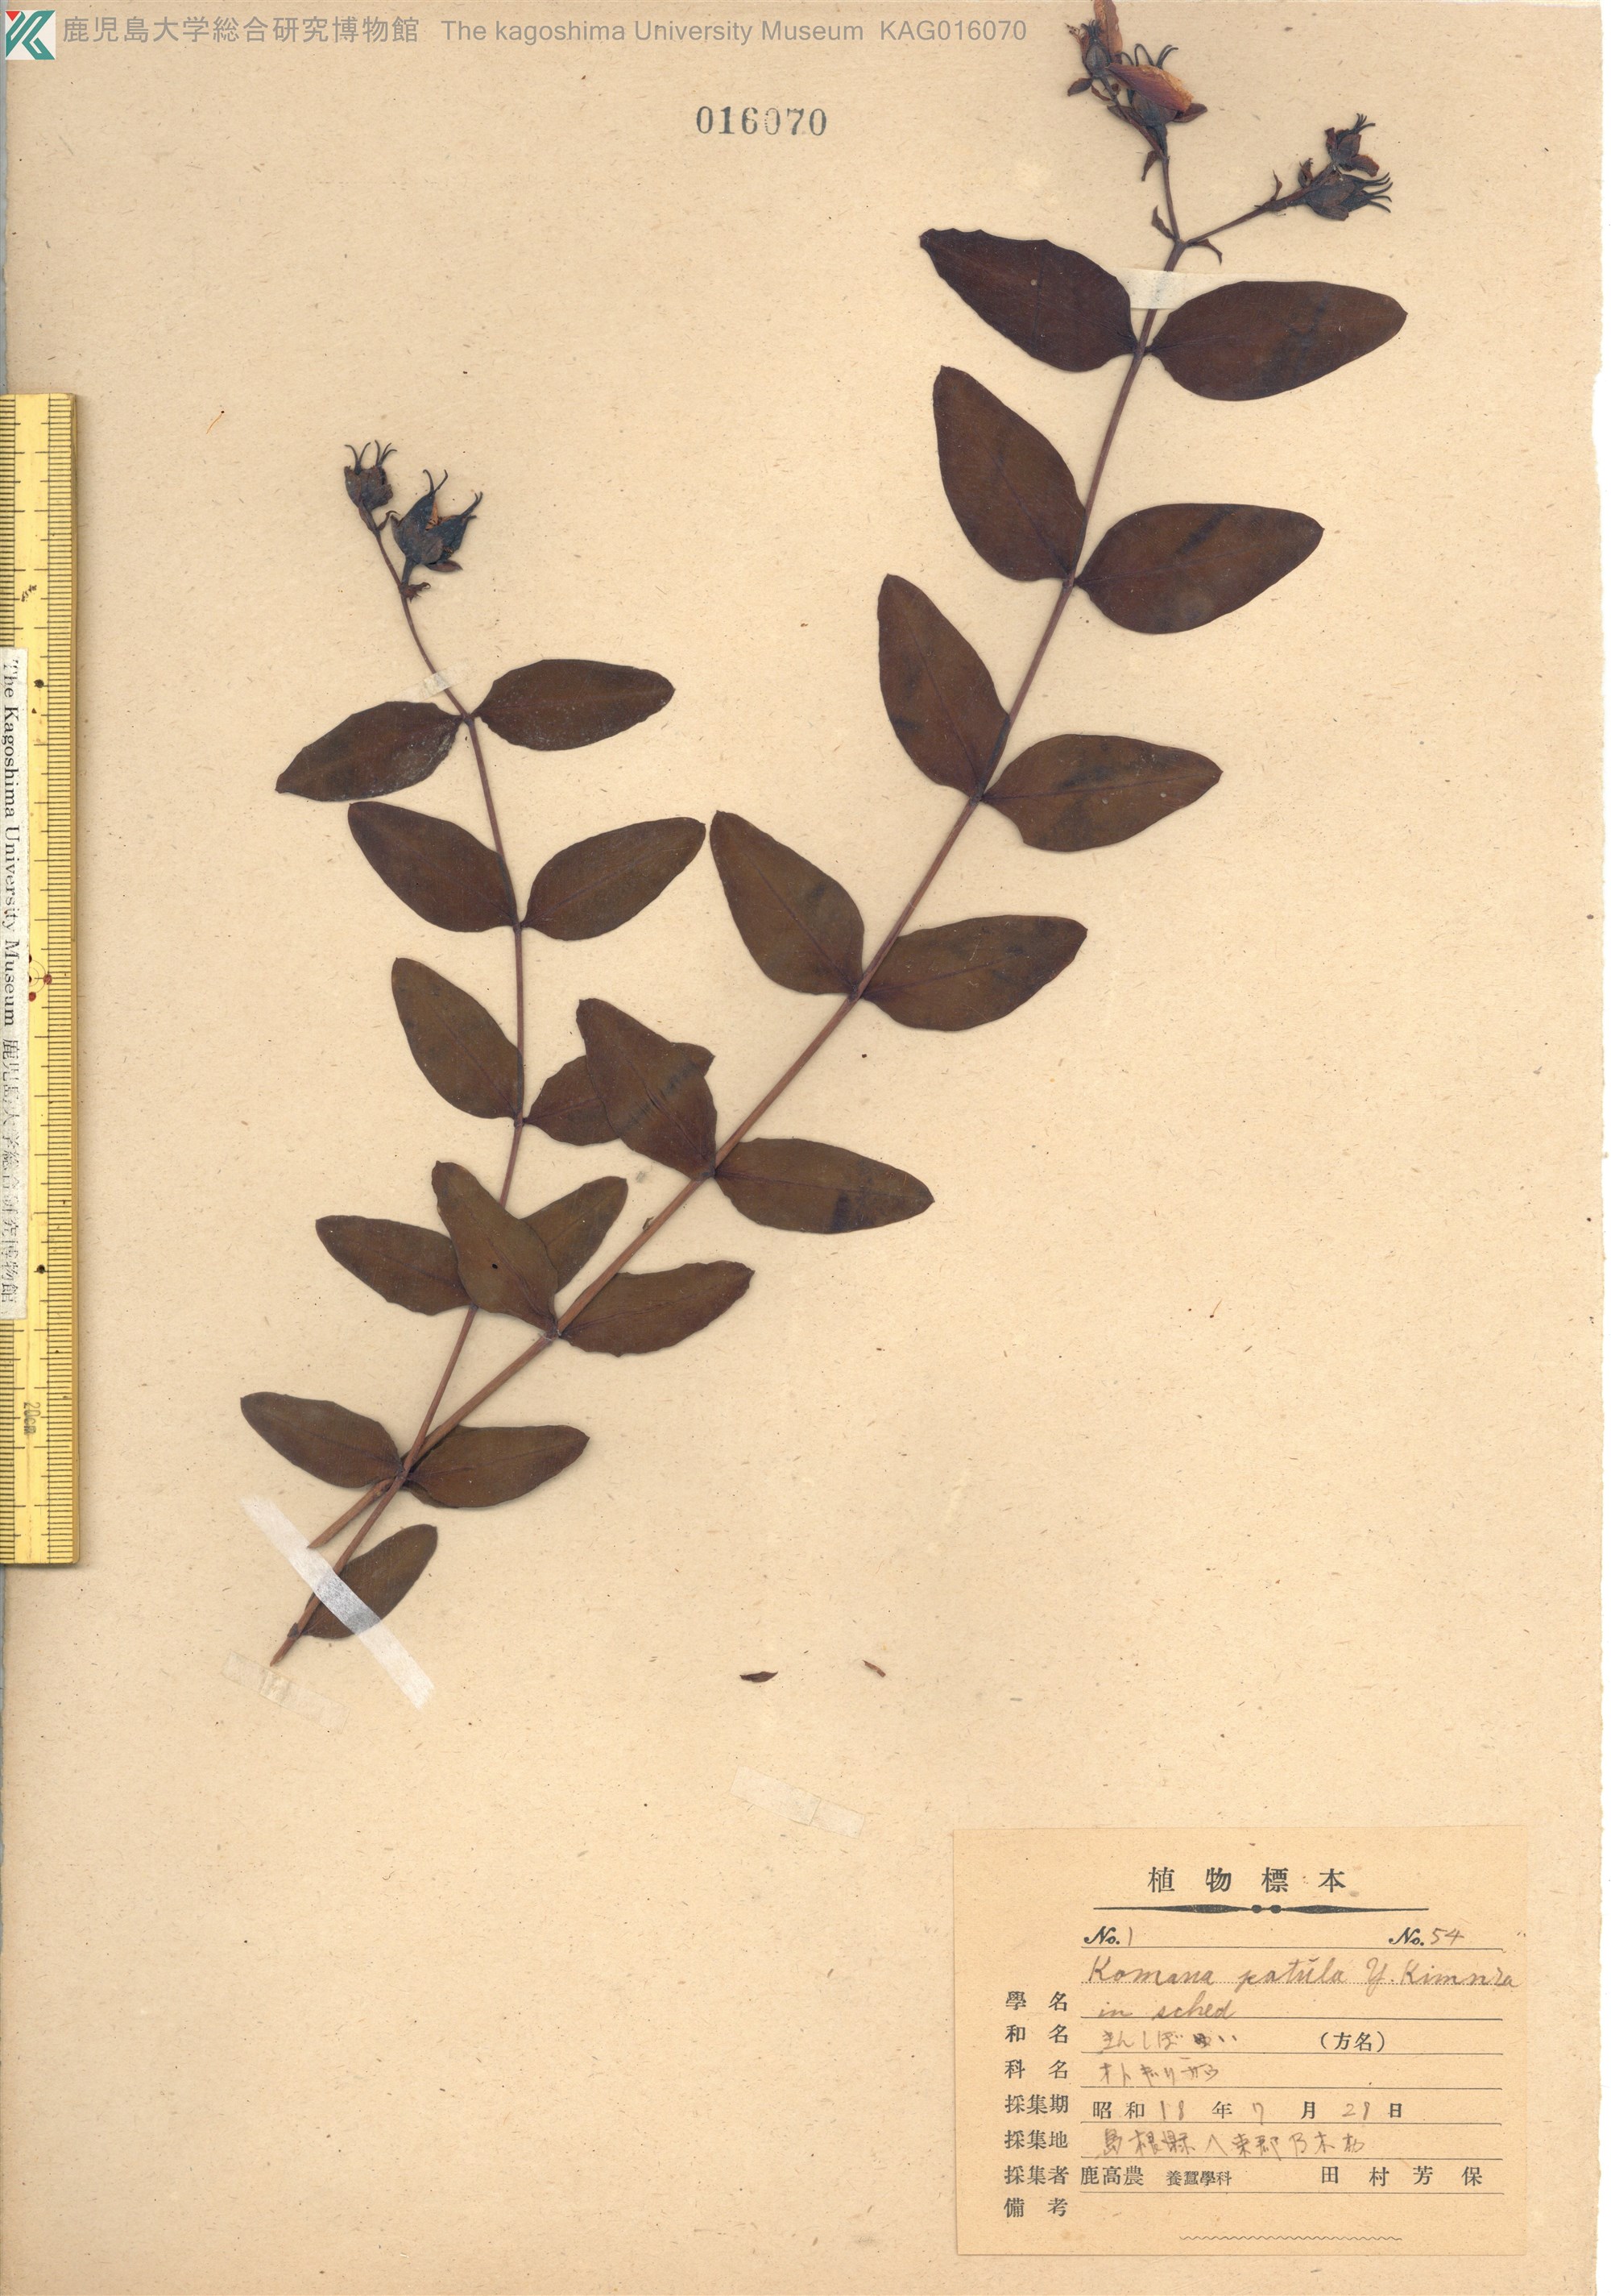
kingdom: Plantae
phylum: Tracheophyta
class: Magnoliopsida
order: Malpighiales
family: Hypericaceae
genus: Hypericum
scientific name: Hypericum patulum
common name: キンシバイ
